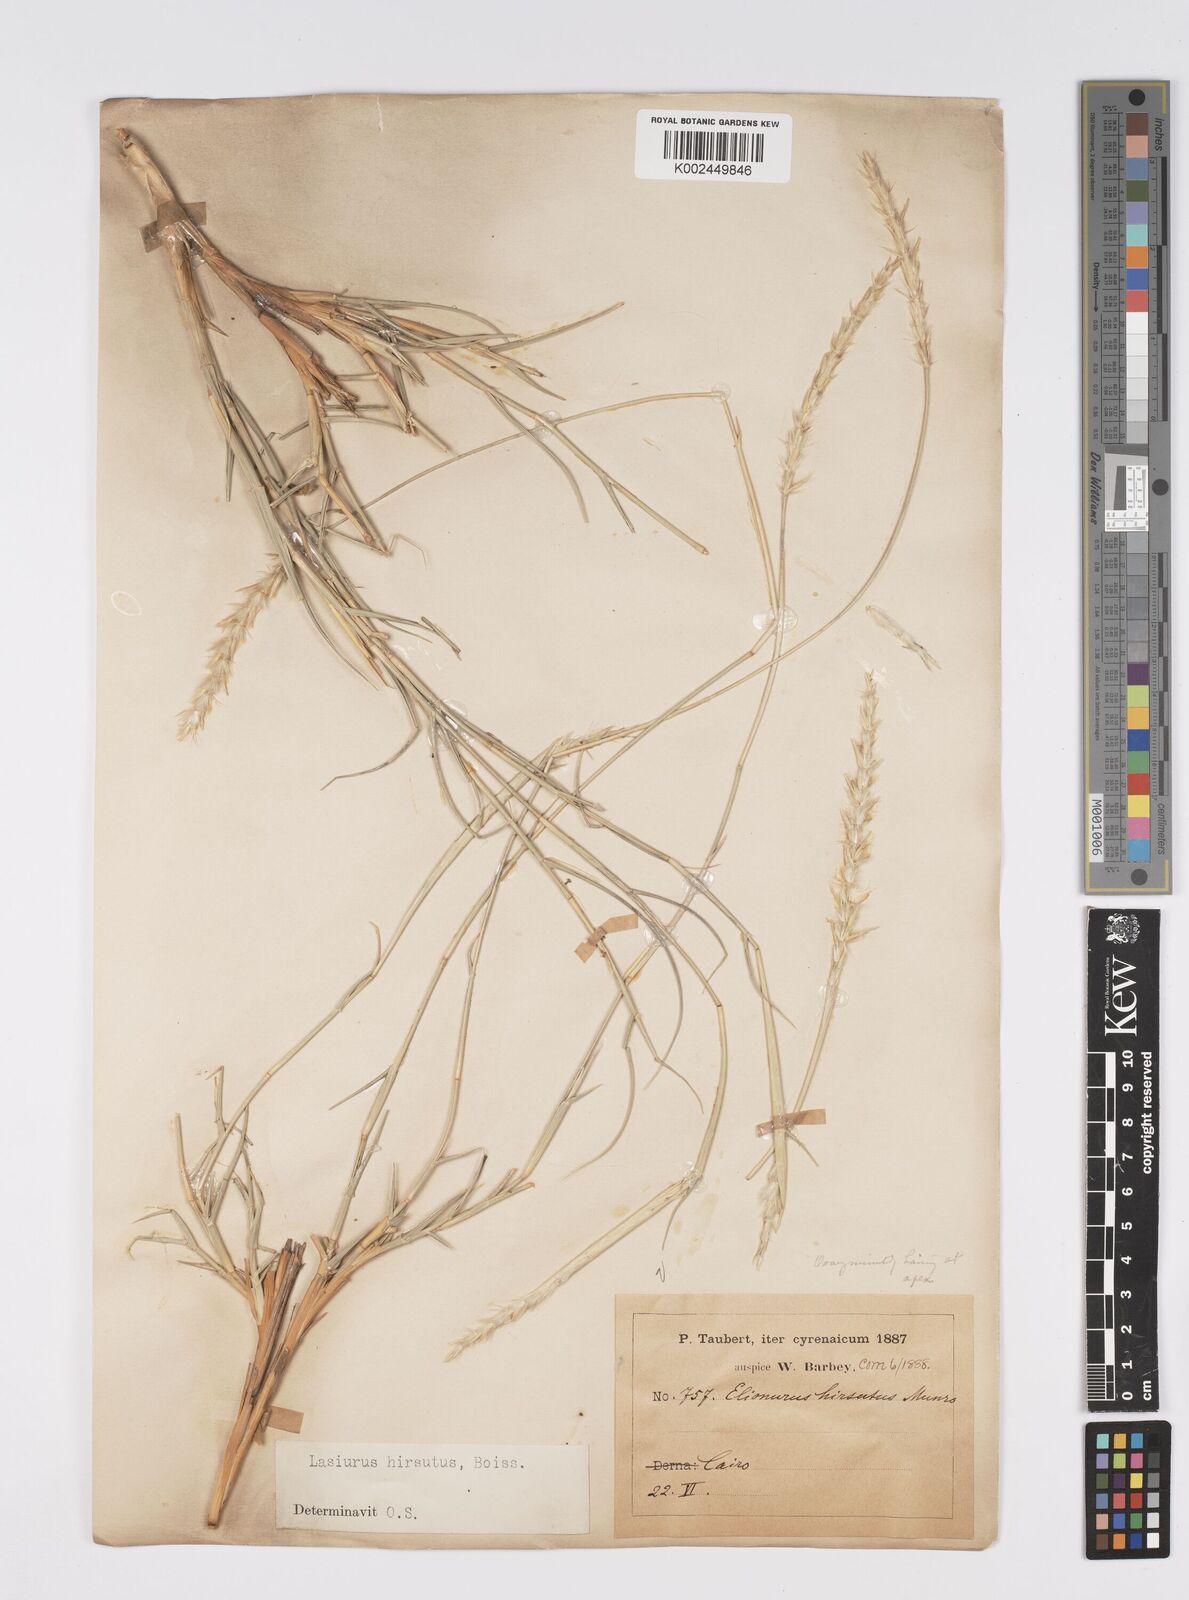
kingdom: Plantae
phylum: Tracheophyta
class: Liliopsida
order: Poales
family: Poaceae
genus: Lasiurus
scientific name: Lasiurus scindicus
